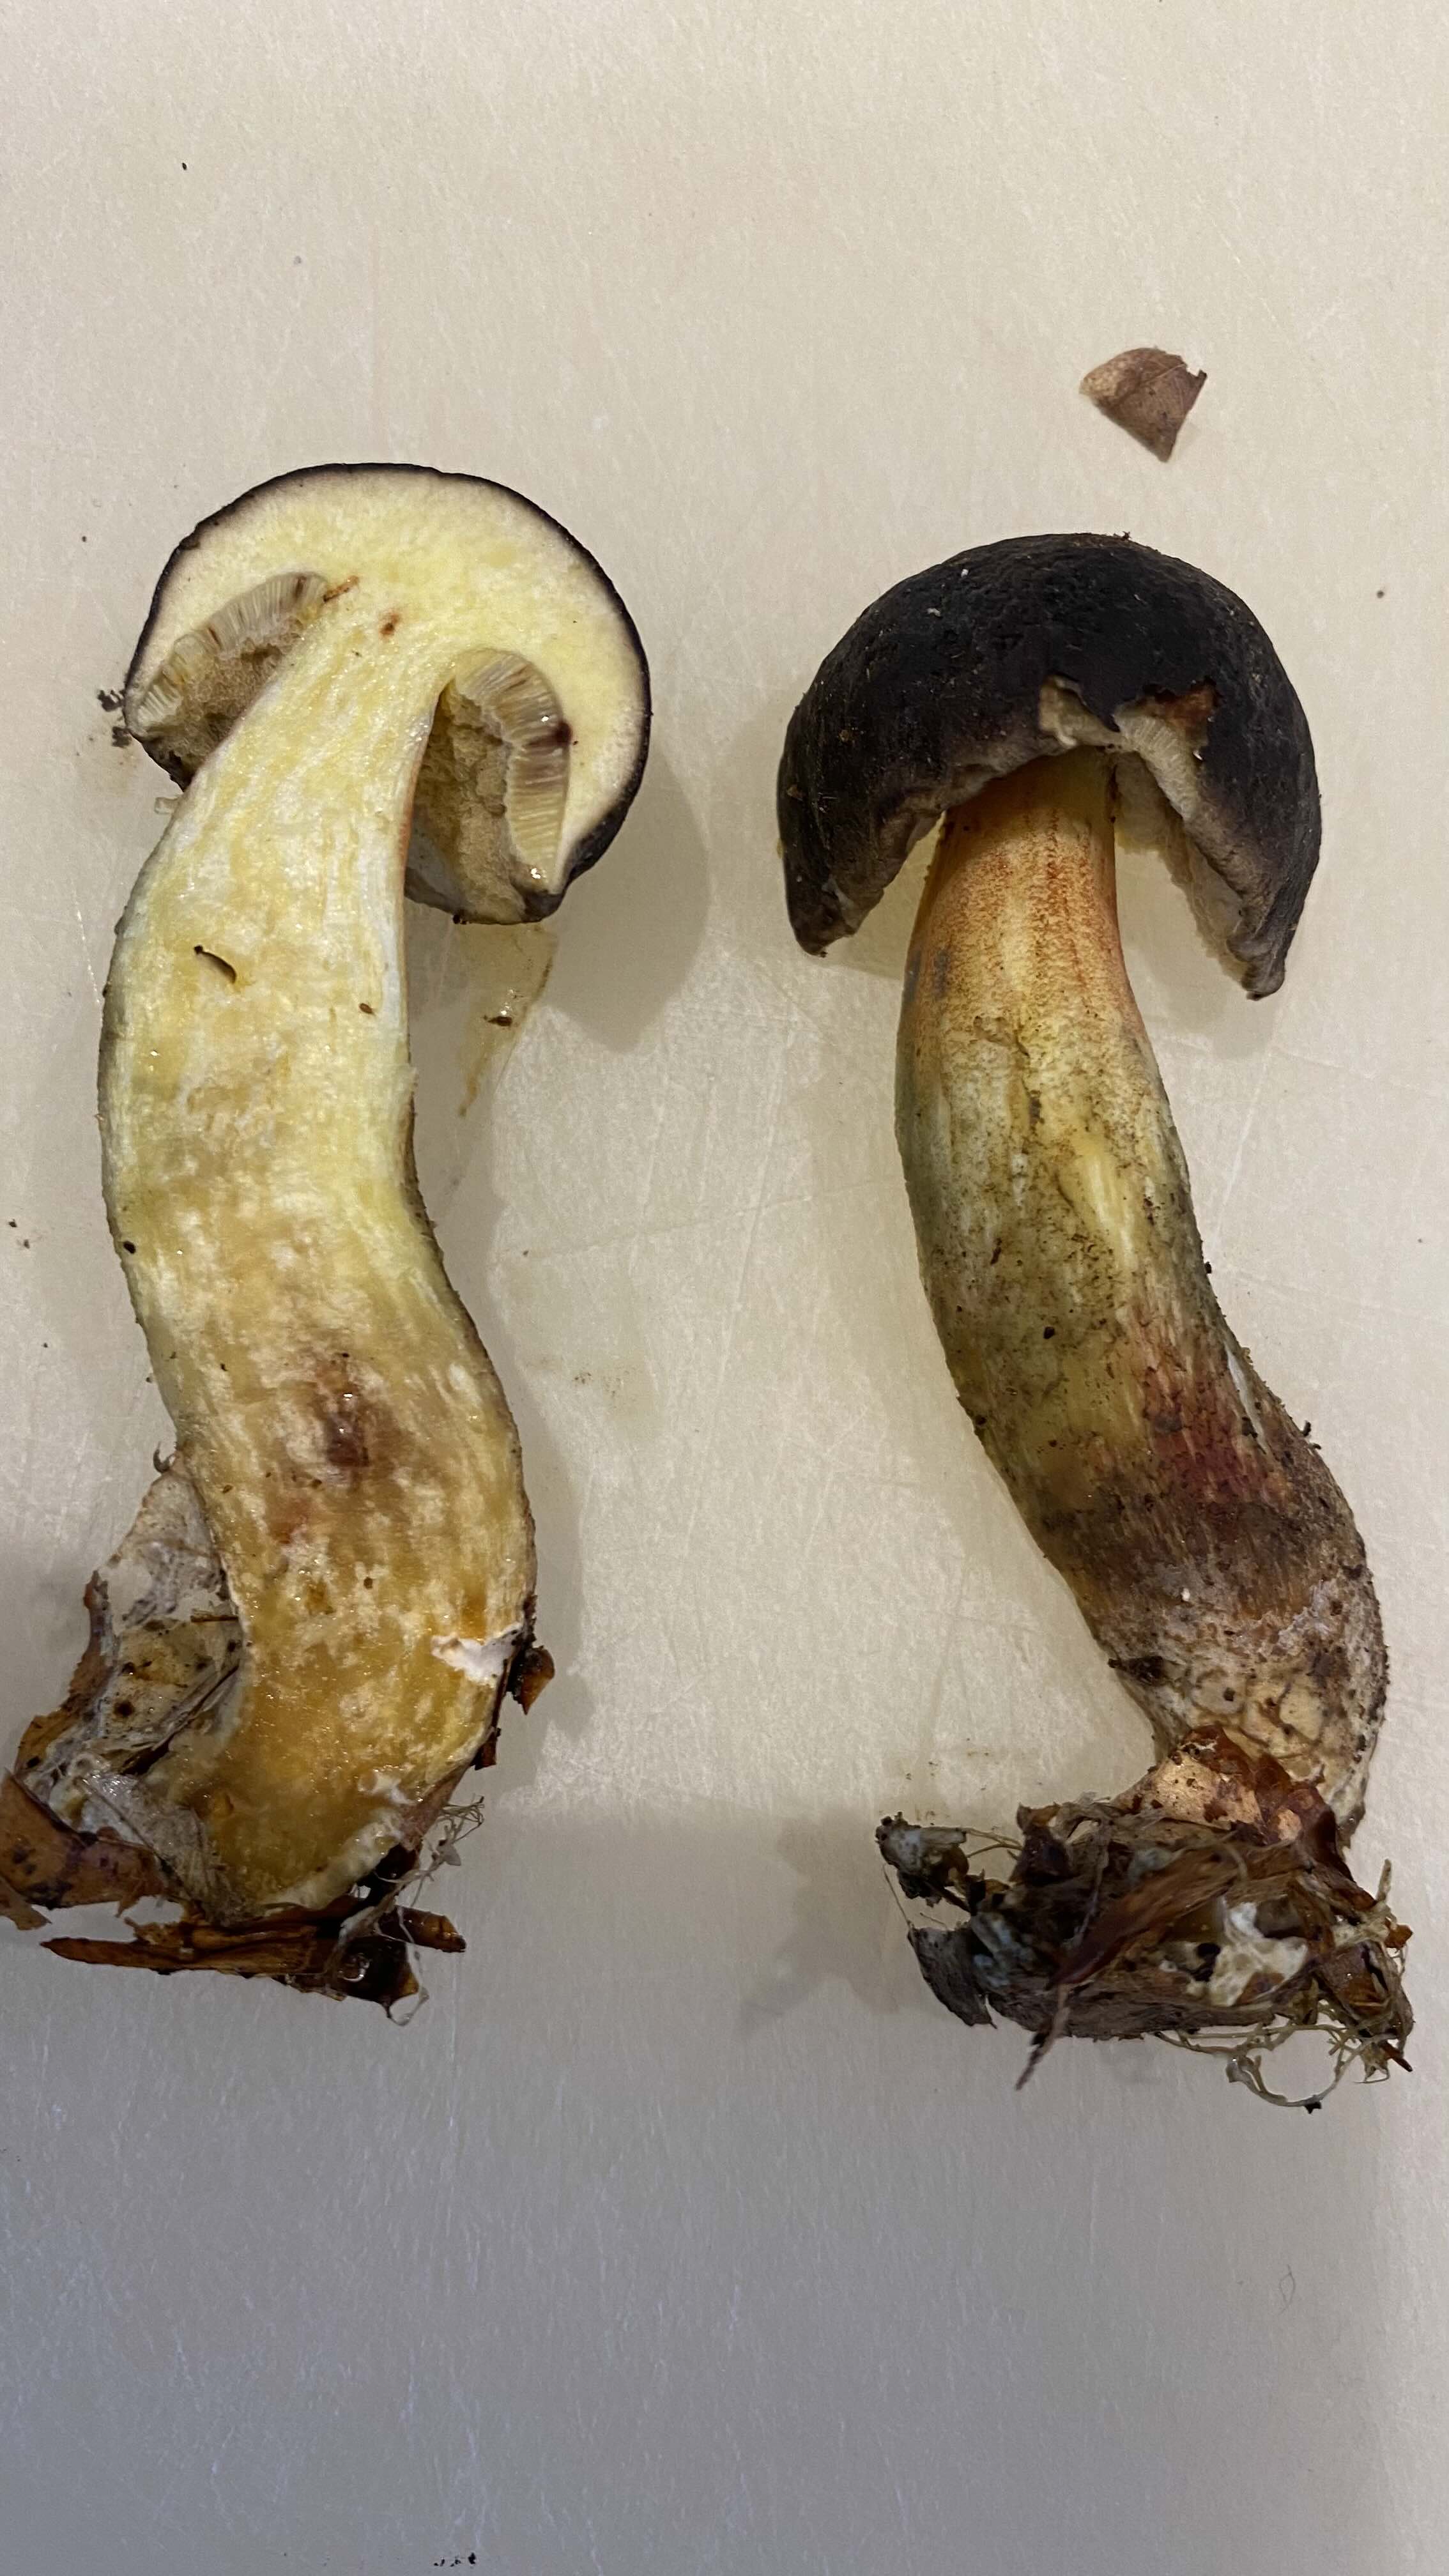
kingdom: Fungi
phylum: Basidiomycota
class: Agaricomycetes
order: Boletales
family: Boletaceae
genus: Xerocomellus
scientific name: Xerocomellus cisalpinus
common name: finsprukken rørhat
